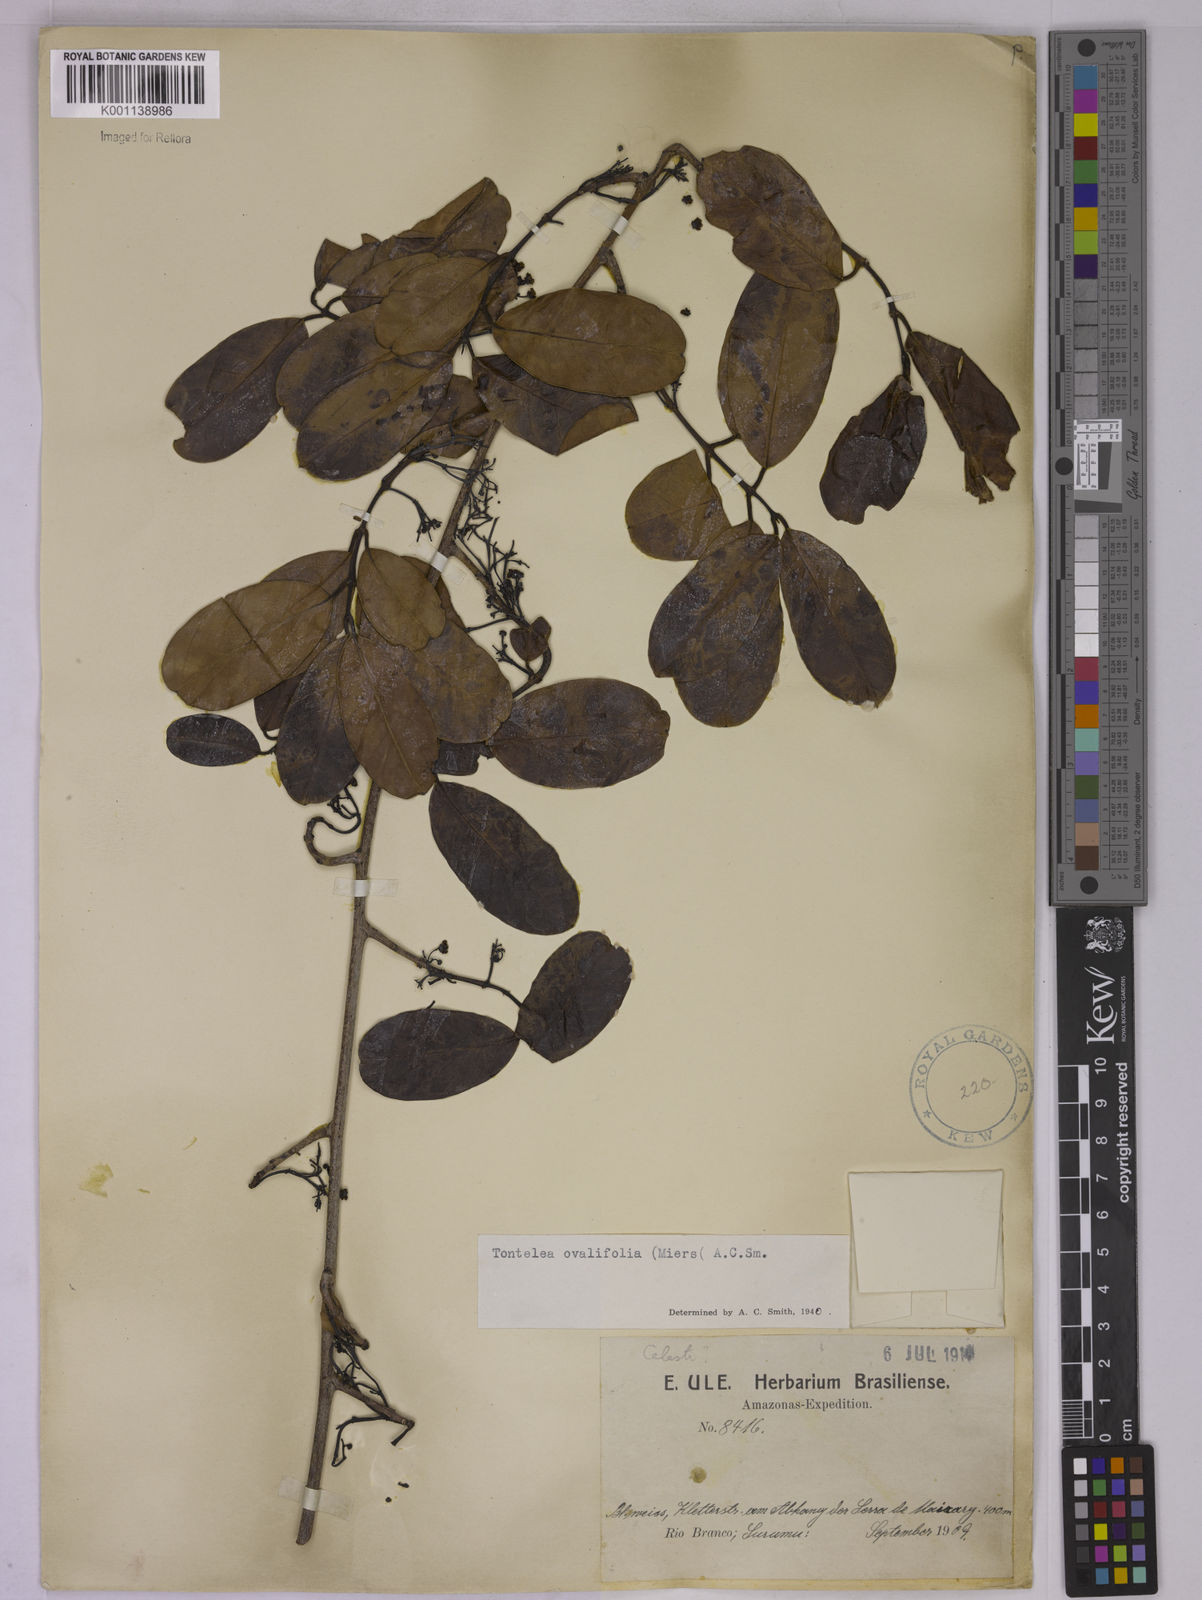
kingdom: Plantae
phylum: Tracheophyta
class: Magnoliopsida
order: Celastrales
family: Celastraceae
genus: Tontelea
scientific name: Tontelea passiflora
